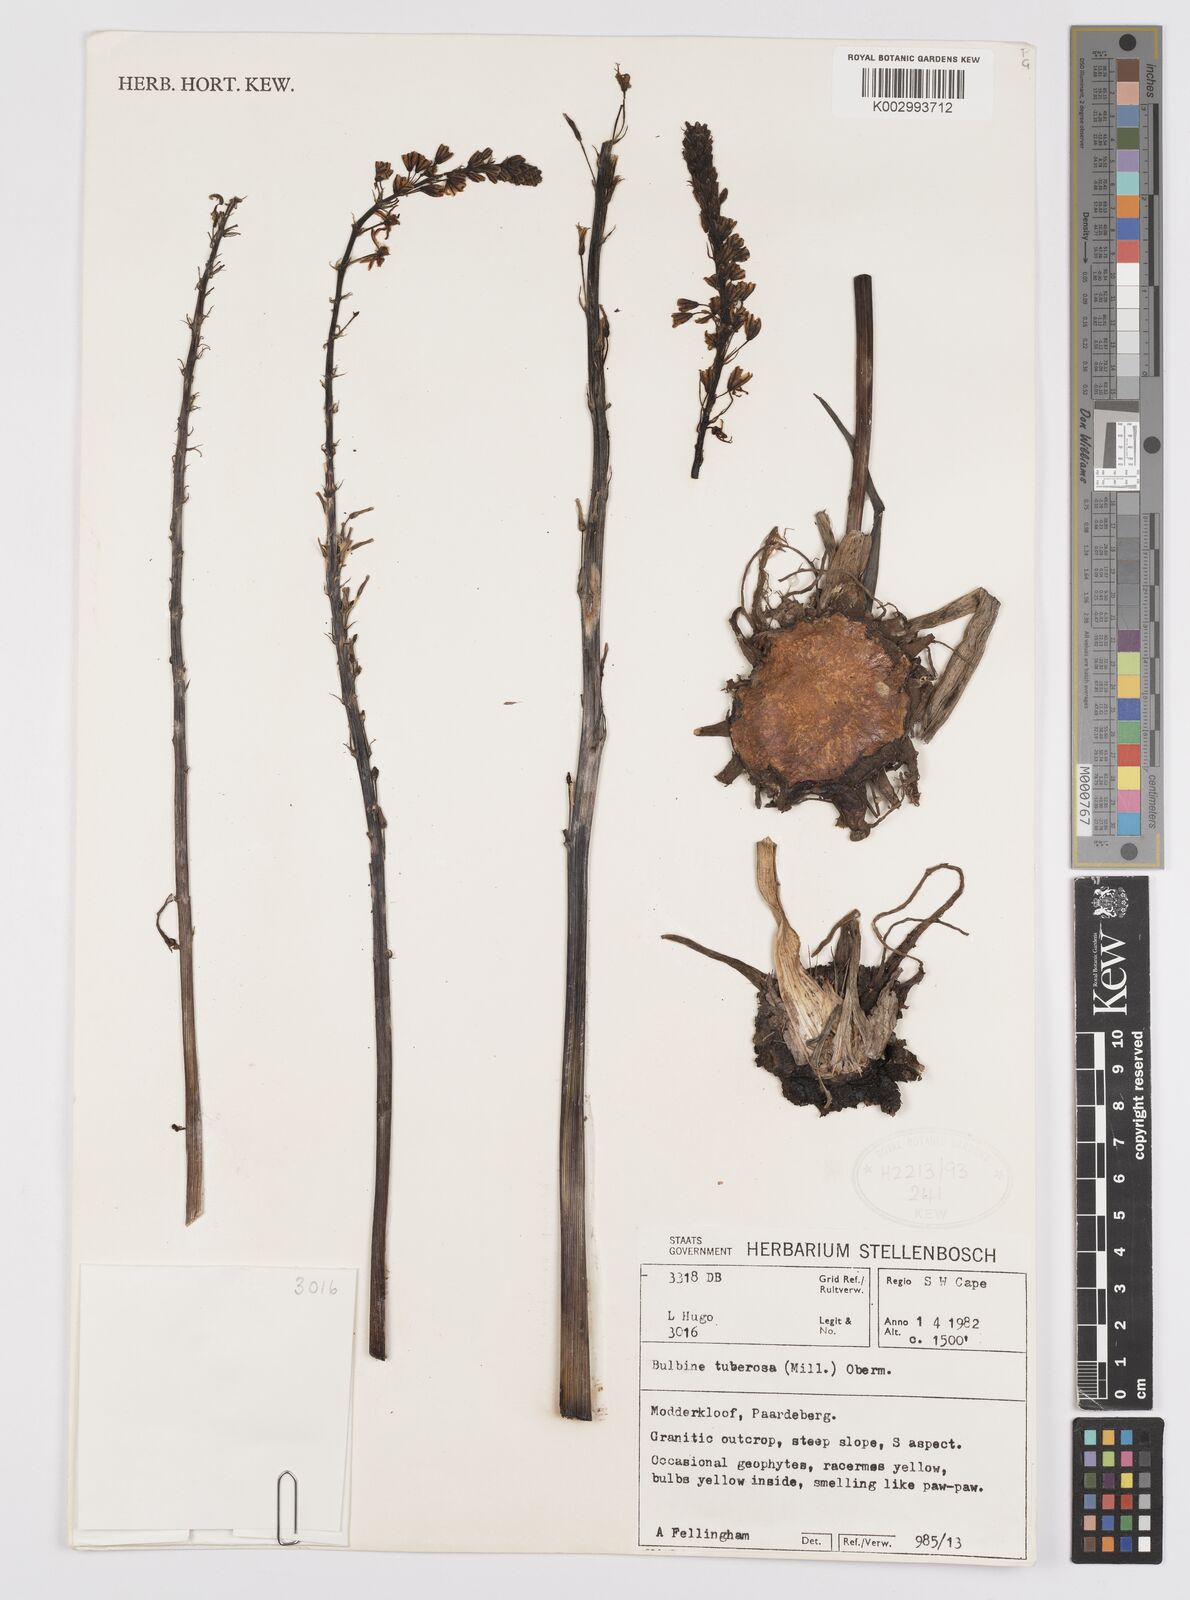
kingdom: Plantae
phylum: Tracheophyta
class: Liliopsida
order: Asparagales
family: Asphodelaceae
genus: Bulbine
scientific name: Bulbine cepacea
